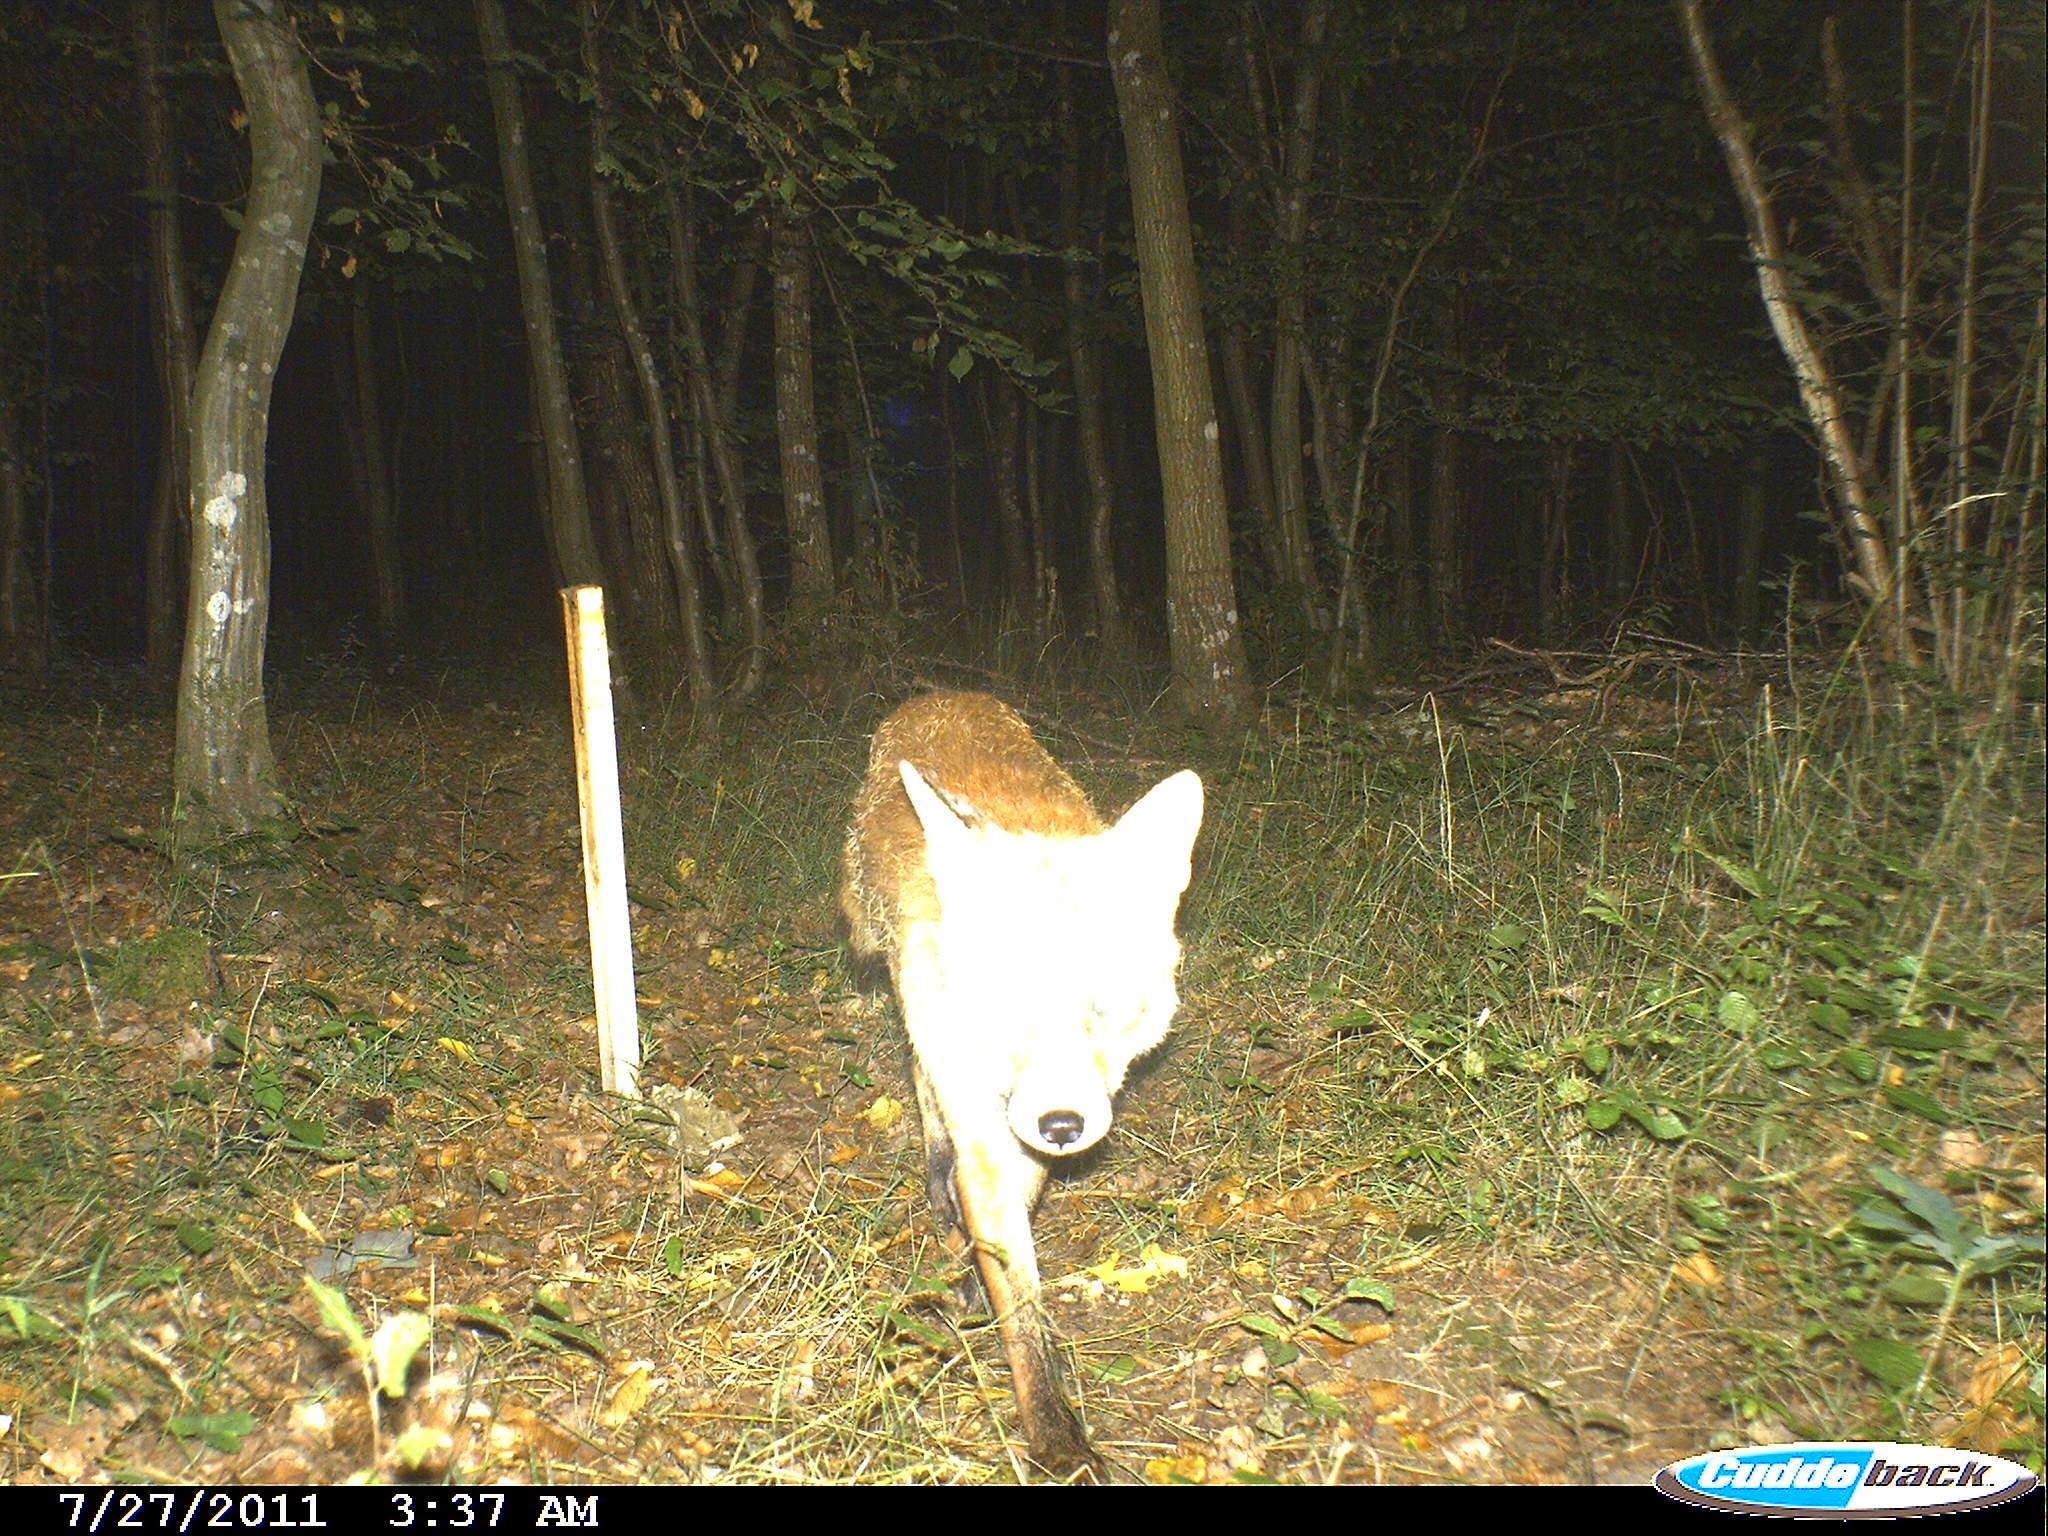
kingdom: Animalia
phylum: Chordata
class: Mammalia
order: Carnivora
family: Canidae
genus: Vulpes
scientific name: Vulpes vulpes
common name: Red fox
